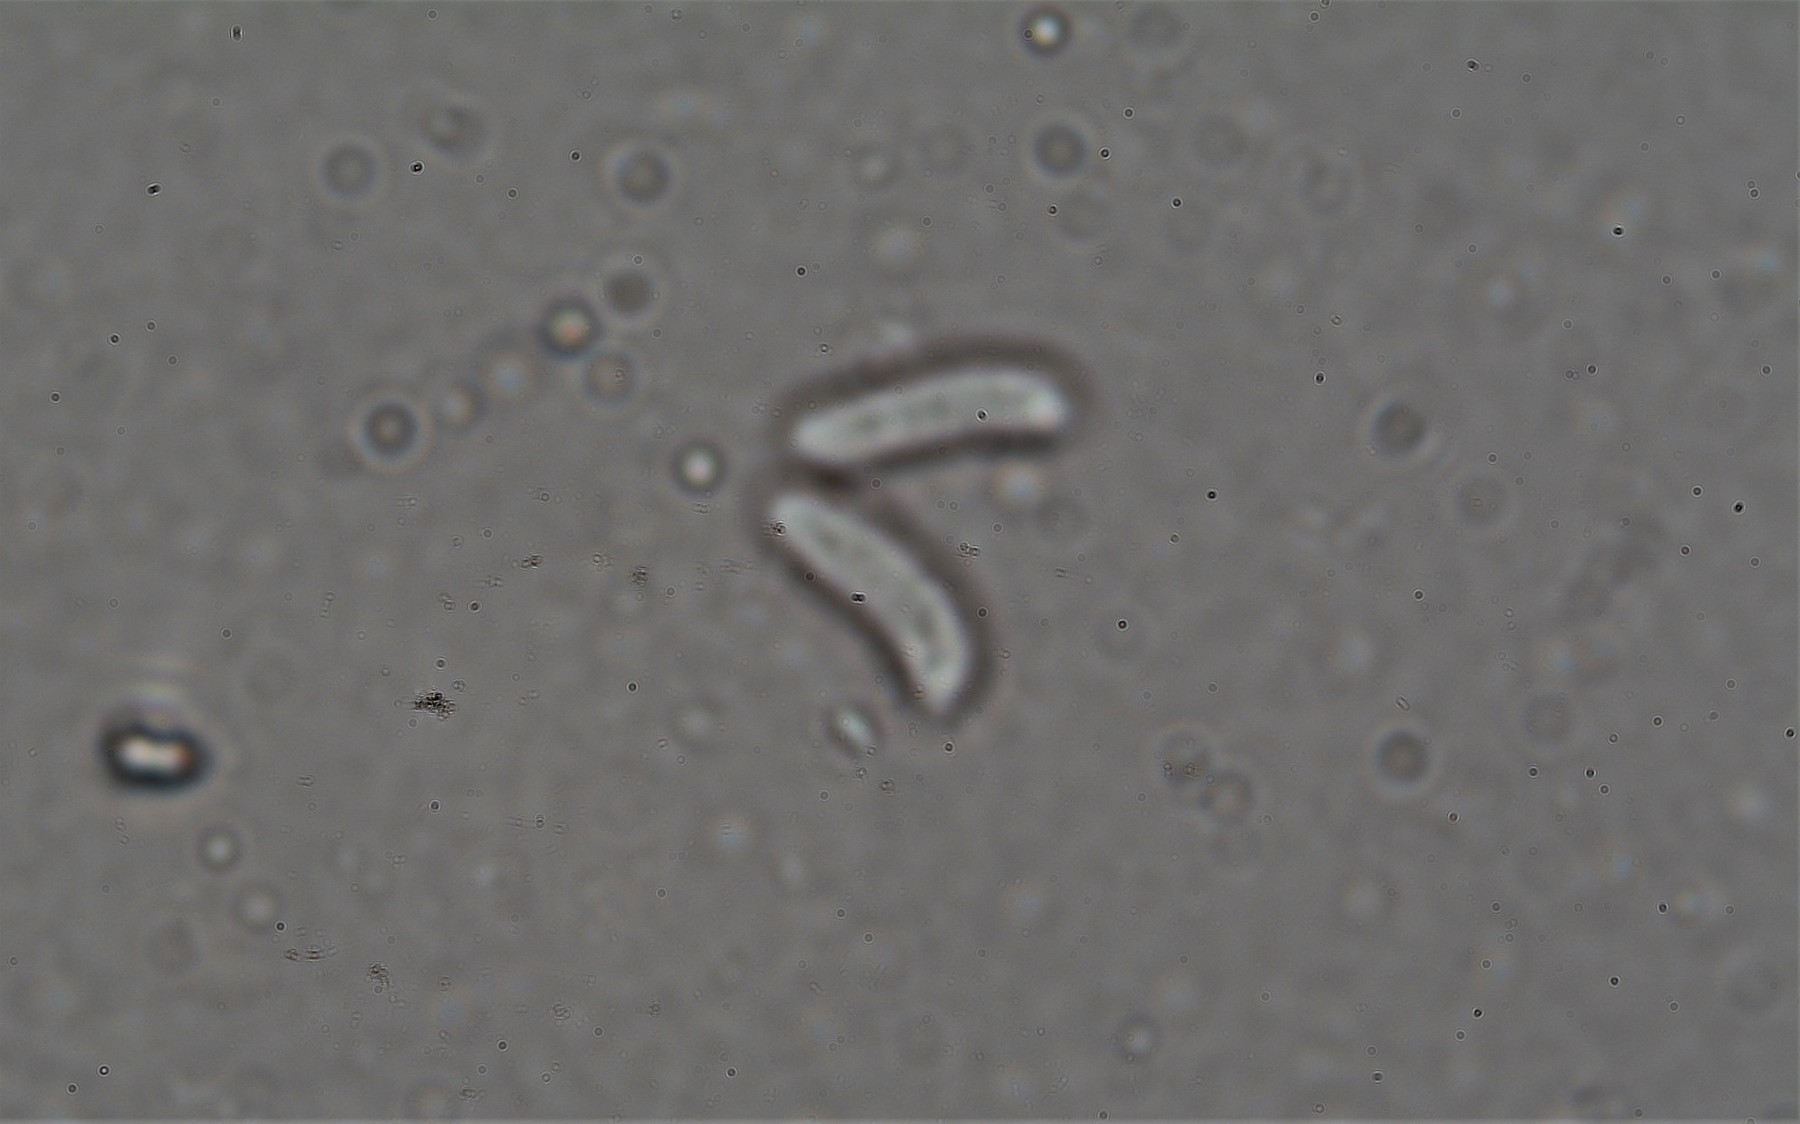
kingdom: Fungi
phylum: Basidiomycota
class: Agaricomycetes
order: Hymenochaetales
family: Schizoporaceae
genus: Xylodon
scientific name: Xylodon radula
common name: grovtandet kalkskind
